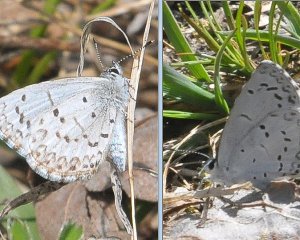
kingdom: Animalia
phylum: Arthropoda
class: Insecta
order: Lepidoptera
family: Lycaenidae
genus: Celastrina
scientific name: Celastrina
